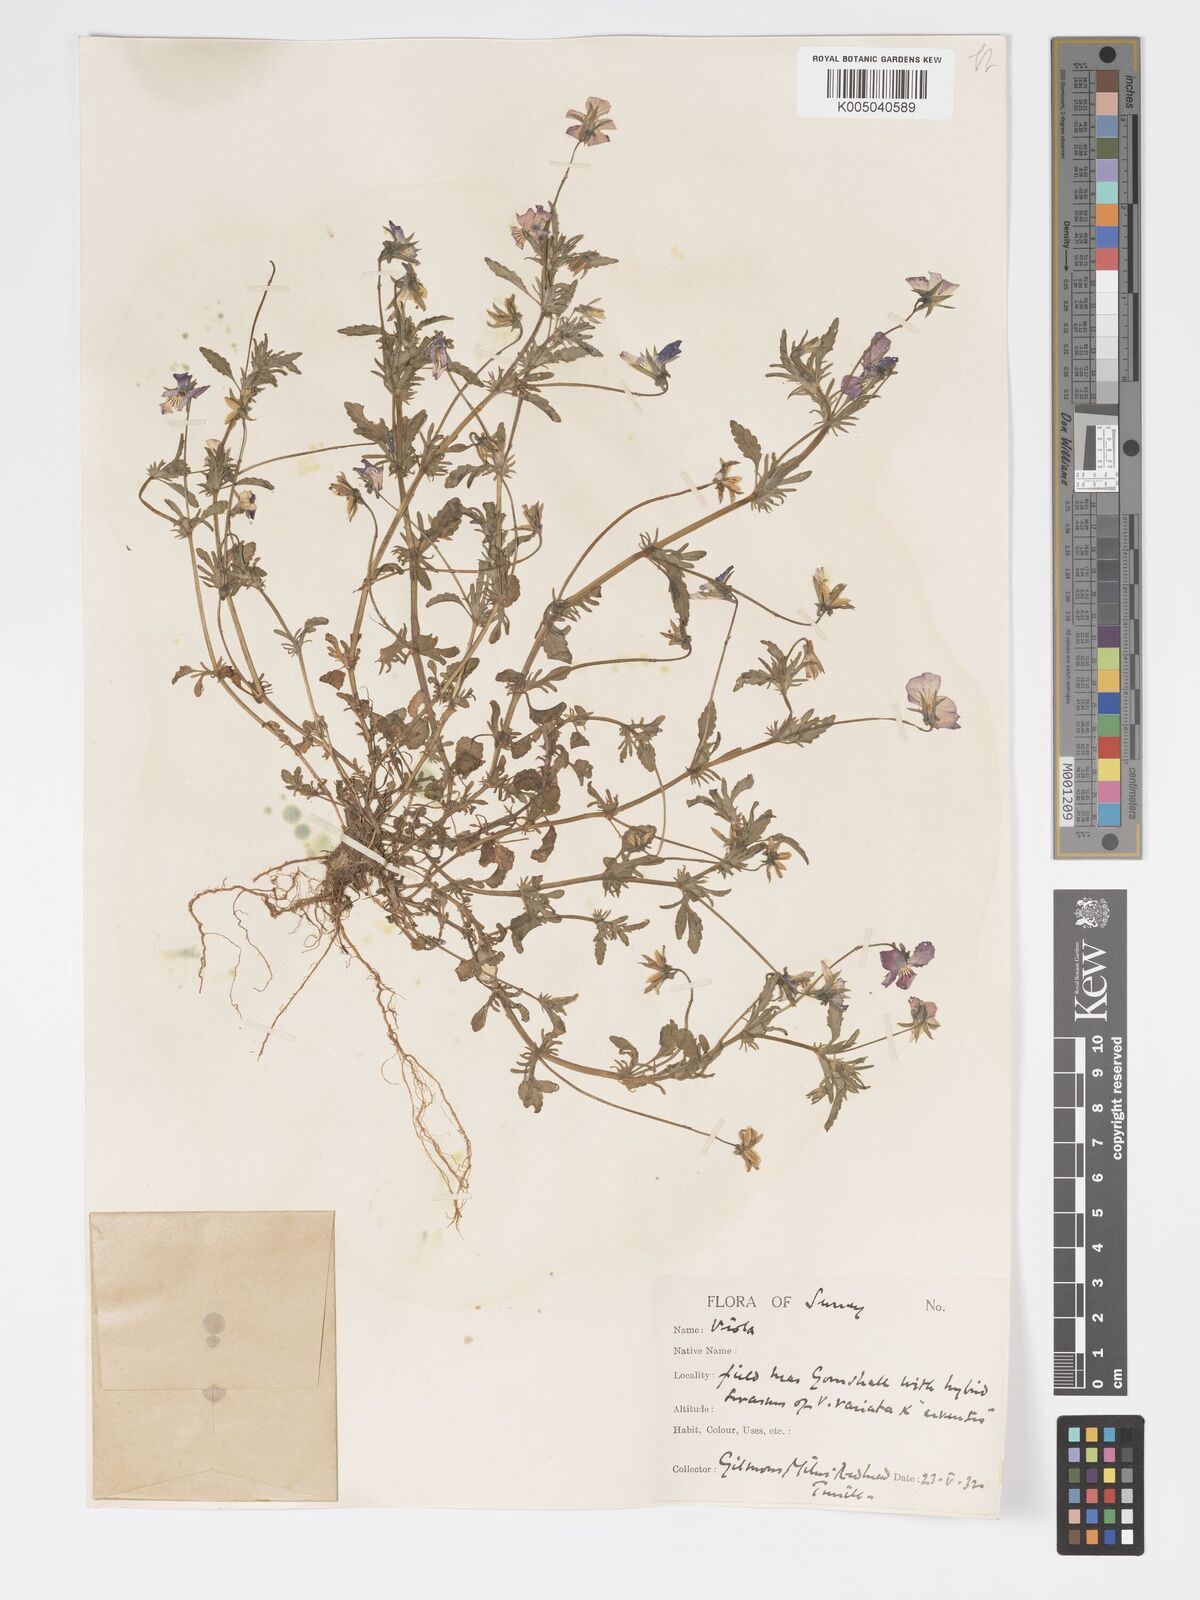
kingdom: Plantae
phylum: Tracheophyta
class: Magnoliopsida
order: Malpighiales
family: Violaceae
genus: Viola
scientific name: Viola
